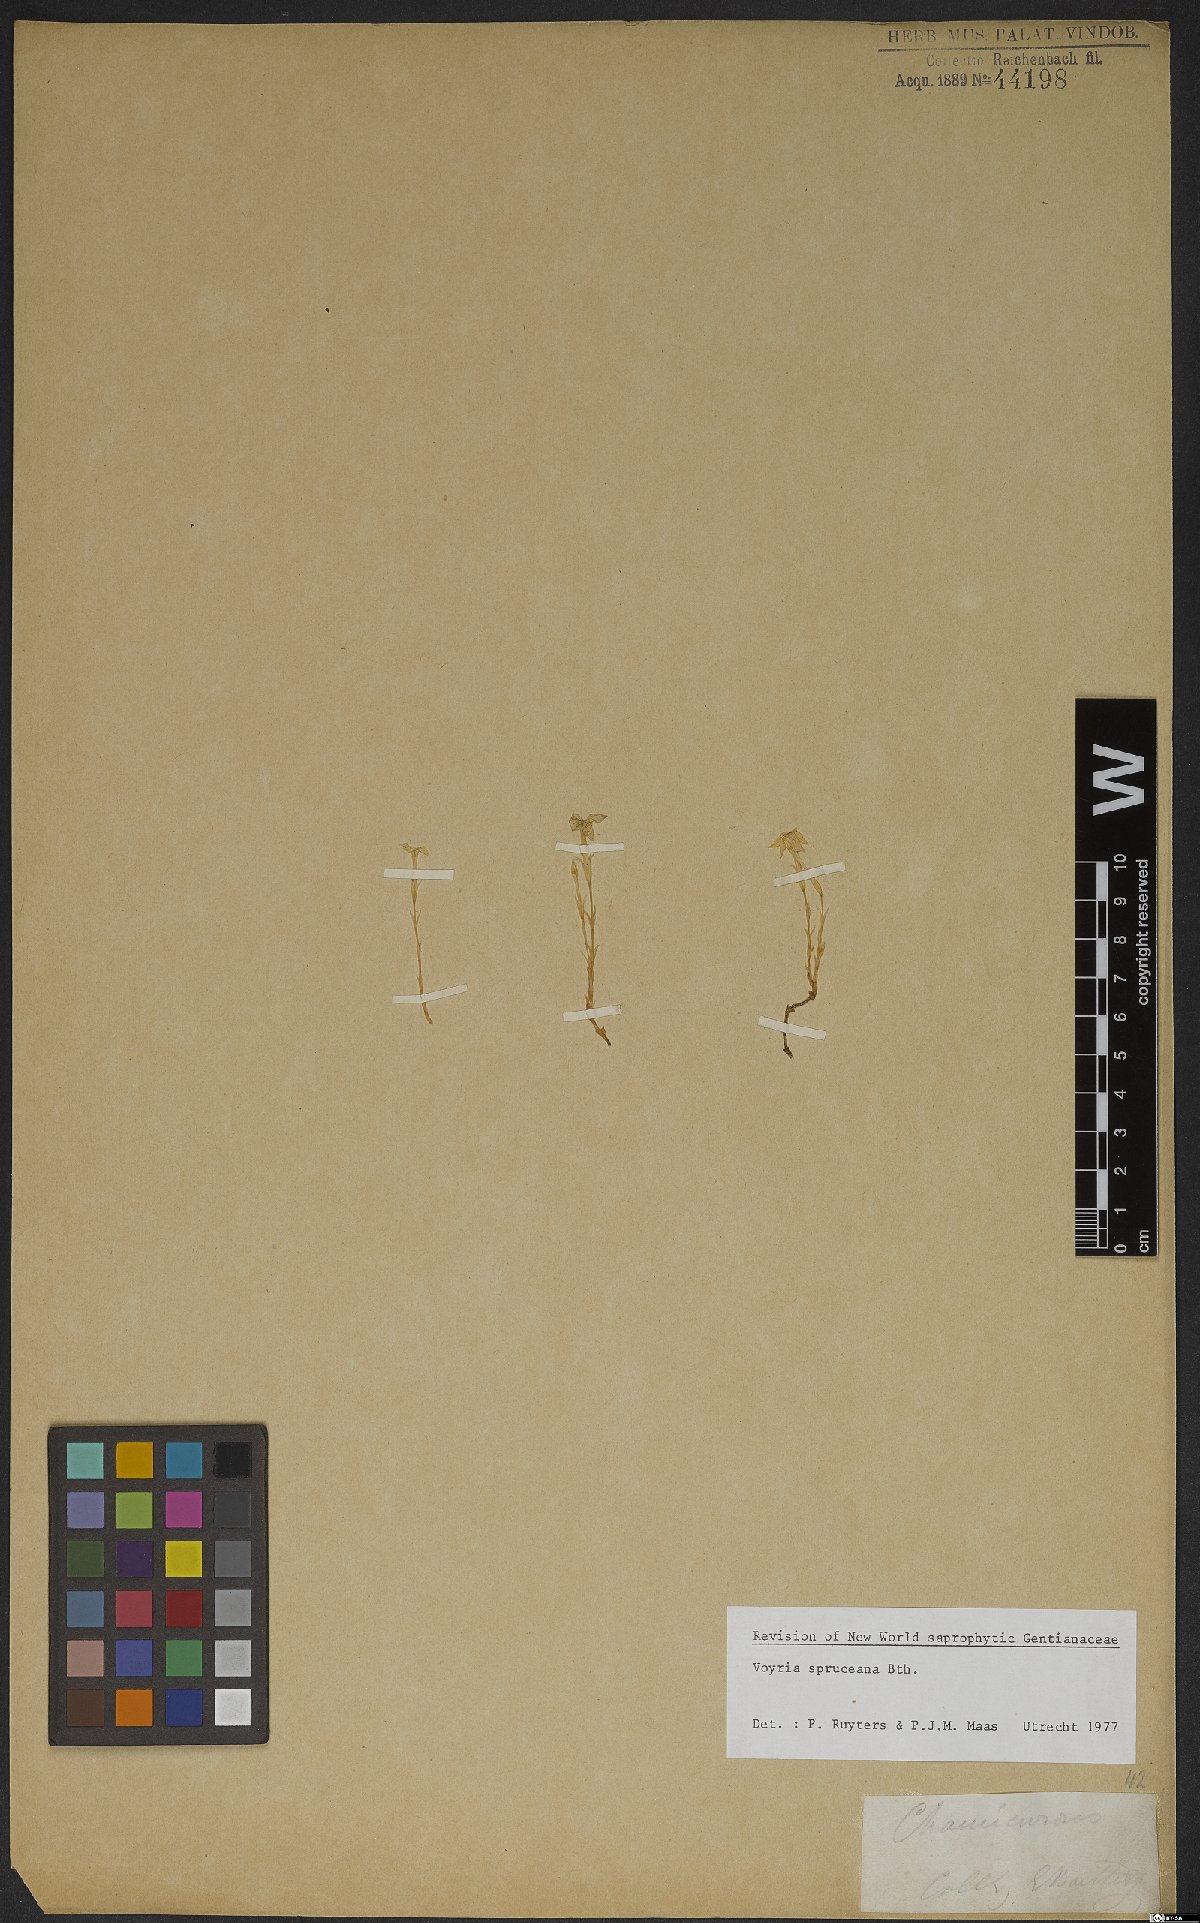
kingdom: Plantae
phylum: Tracheophyta
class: Magnoliopsida
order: Gentianales
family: Gentianaceae
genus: Voyria
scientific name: Voyria spruceana
